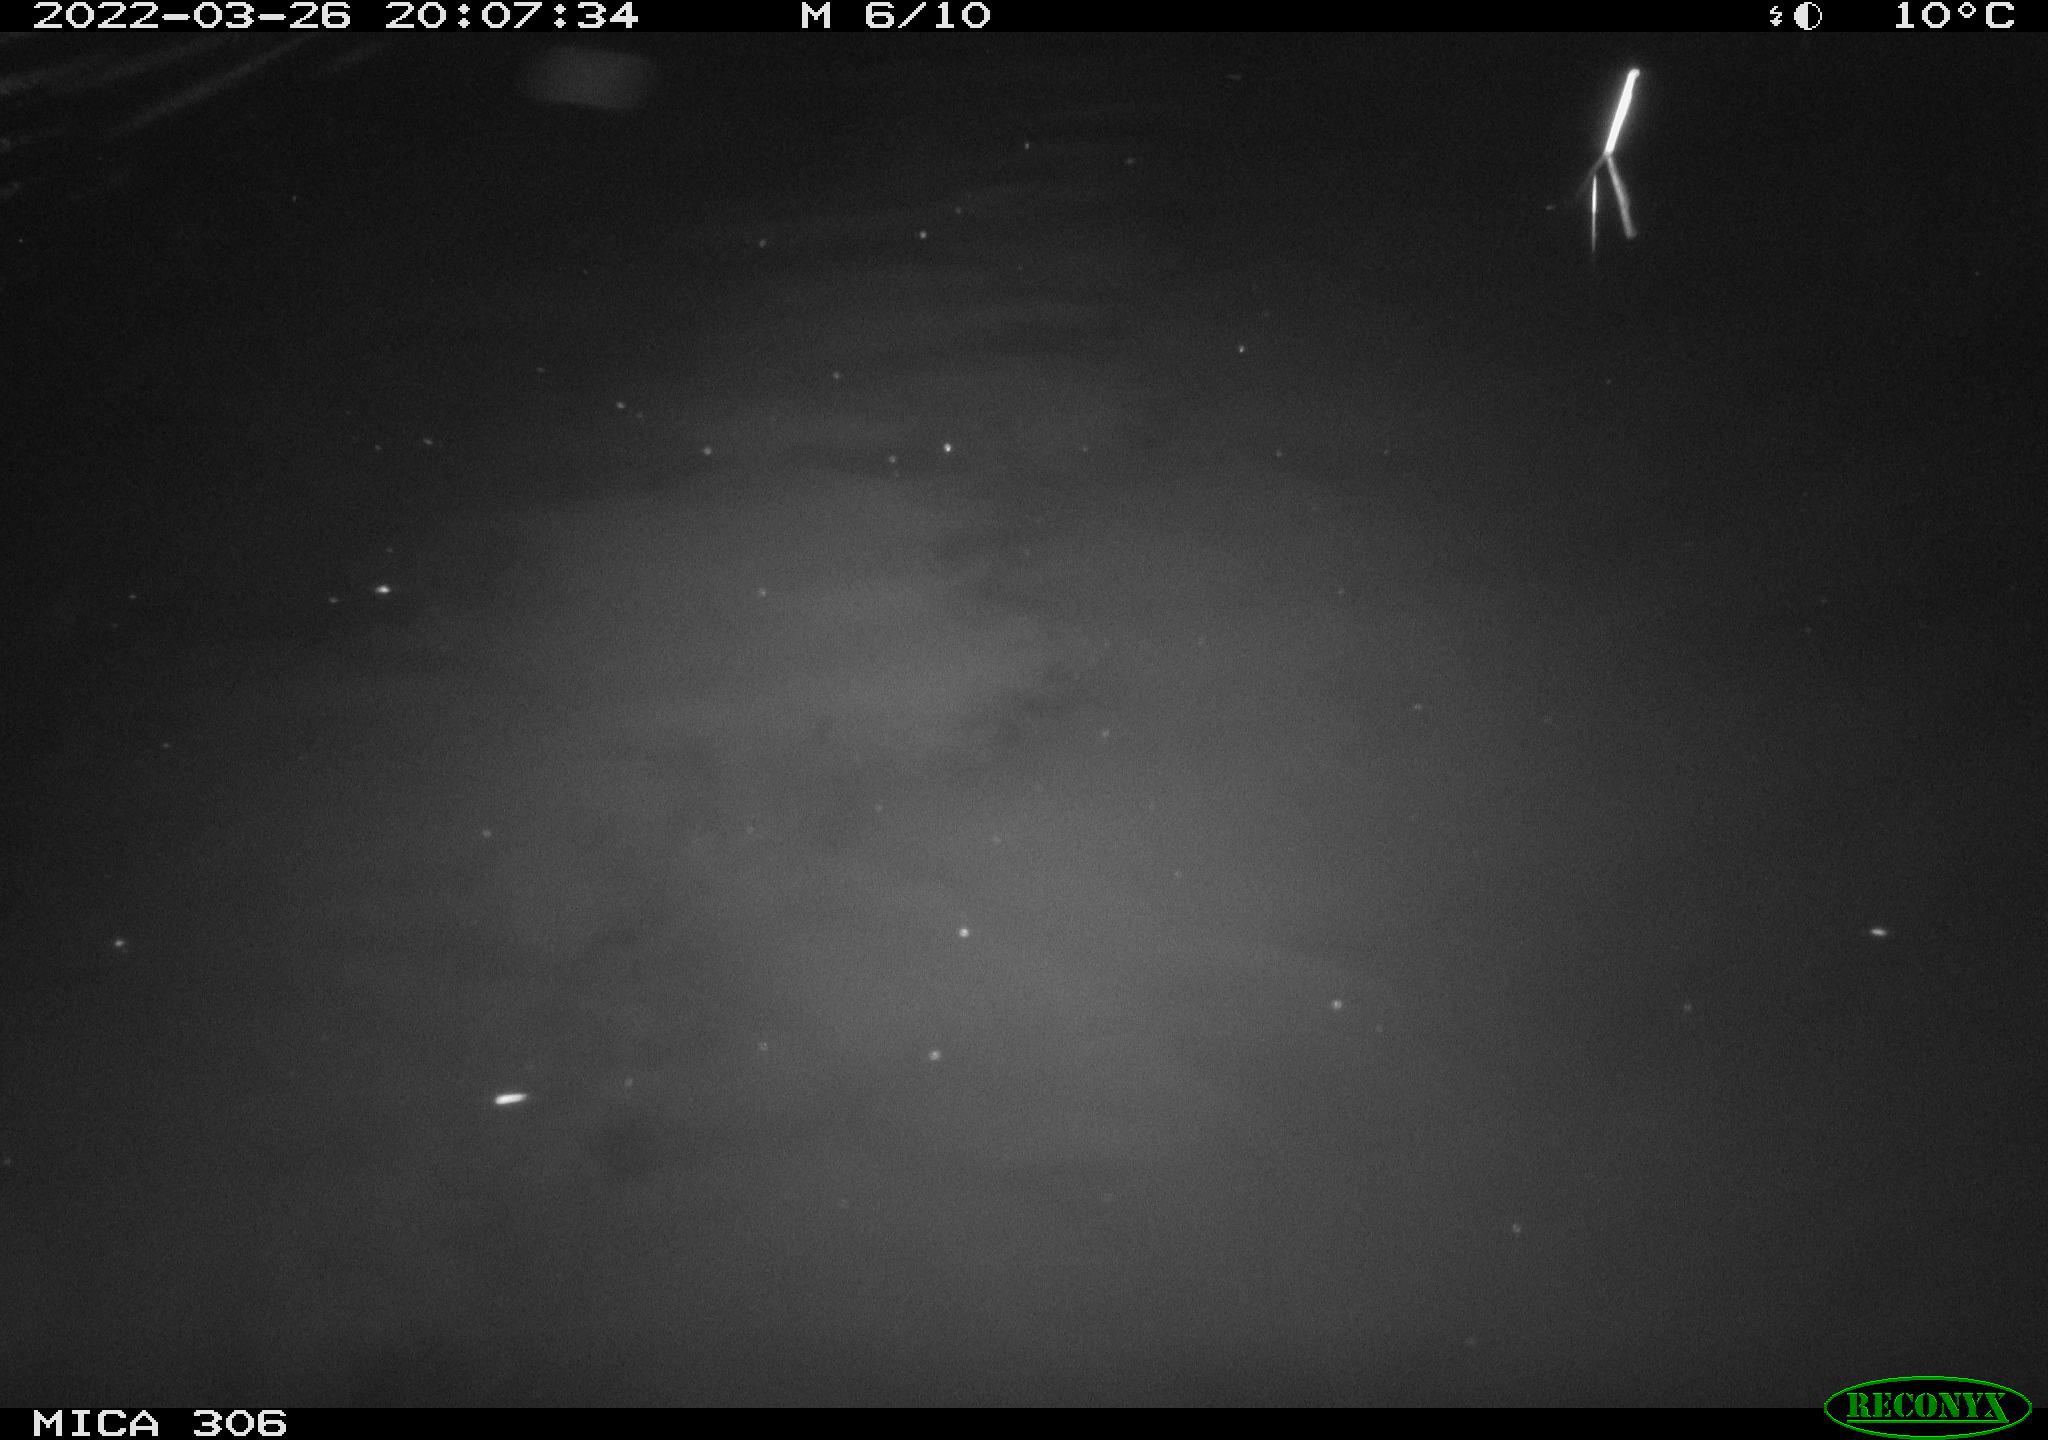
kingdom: Animalia
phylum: Chordata
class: Mammalia
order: Rodentia
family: Cricetidae
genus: Ondatra
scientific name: Ondatra zibethicus
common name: Muskrat
